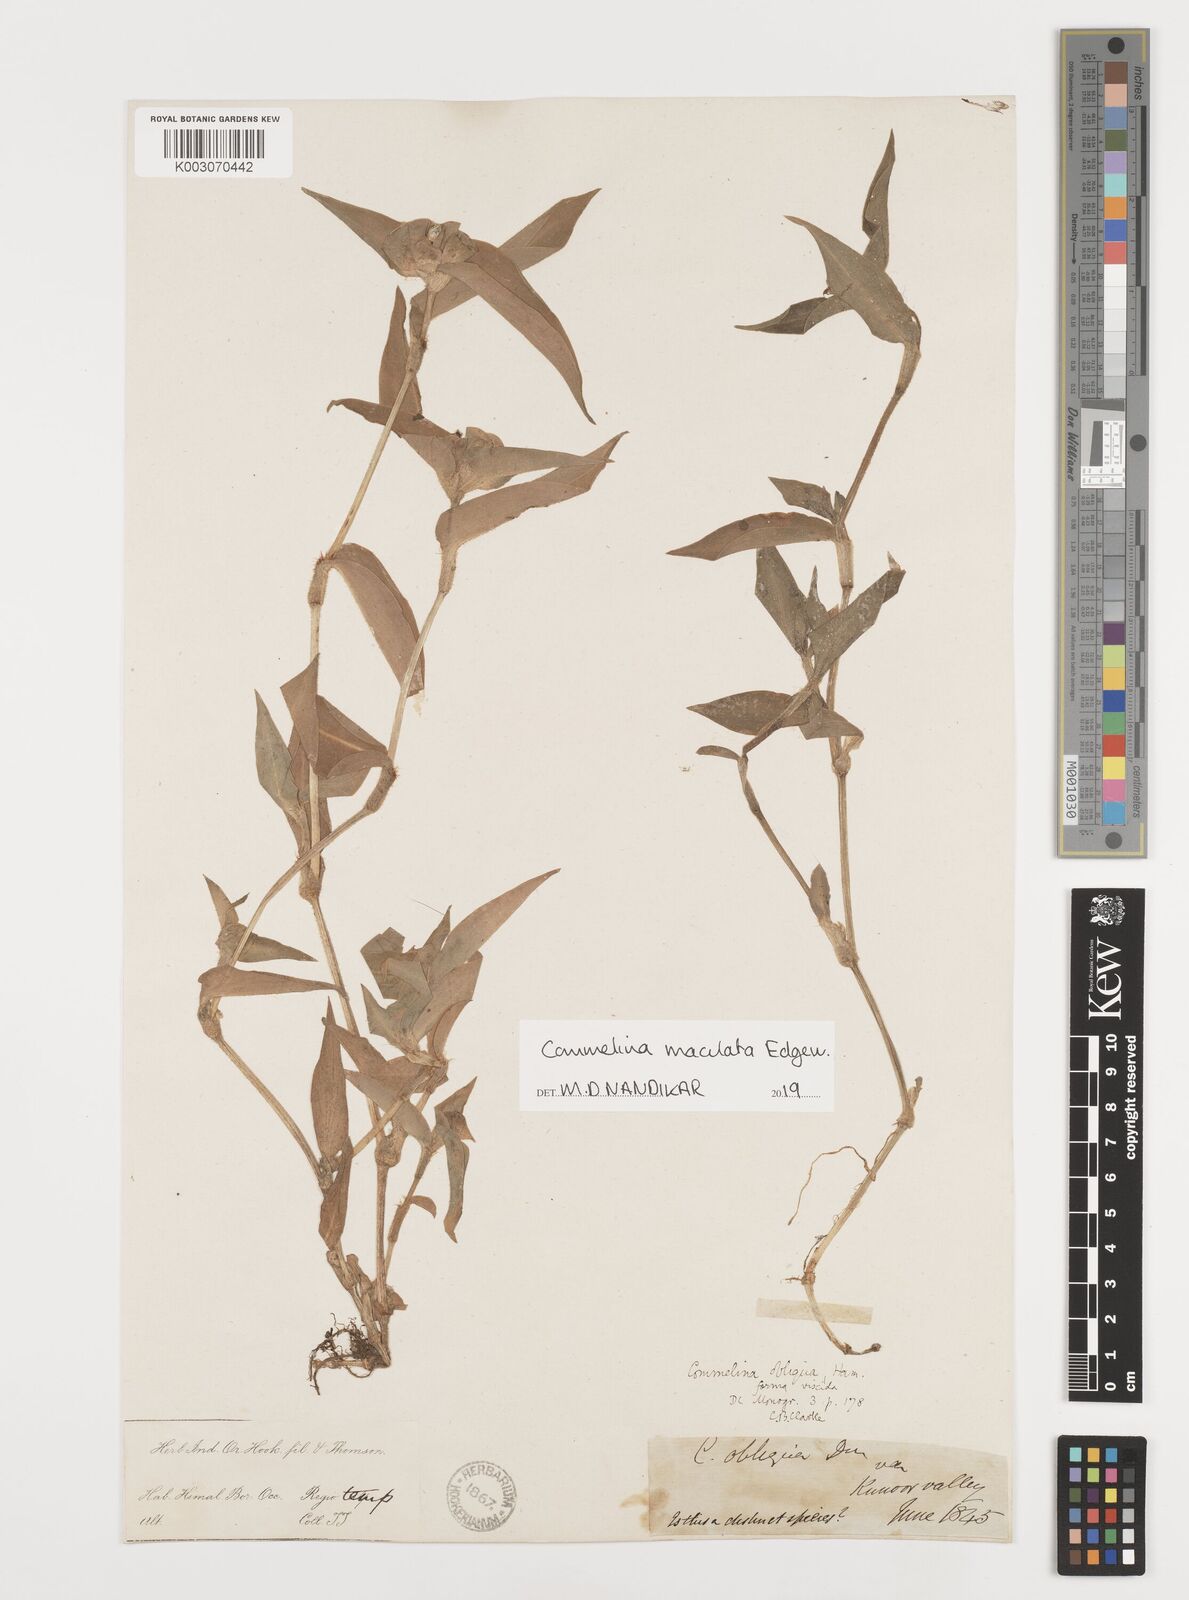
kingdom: Plantae
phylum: Tracheophyta
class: Liliopsida
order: Commelinales
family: Commelinaceae
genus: Commelina
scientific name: Commelina maculata
